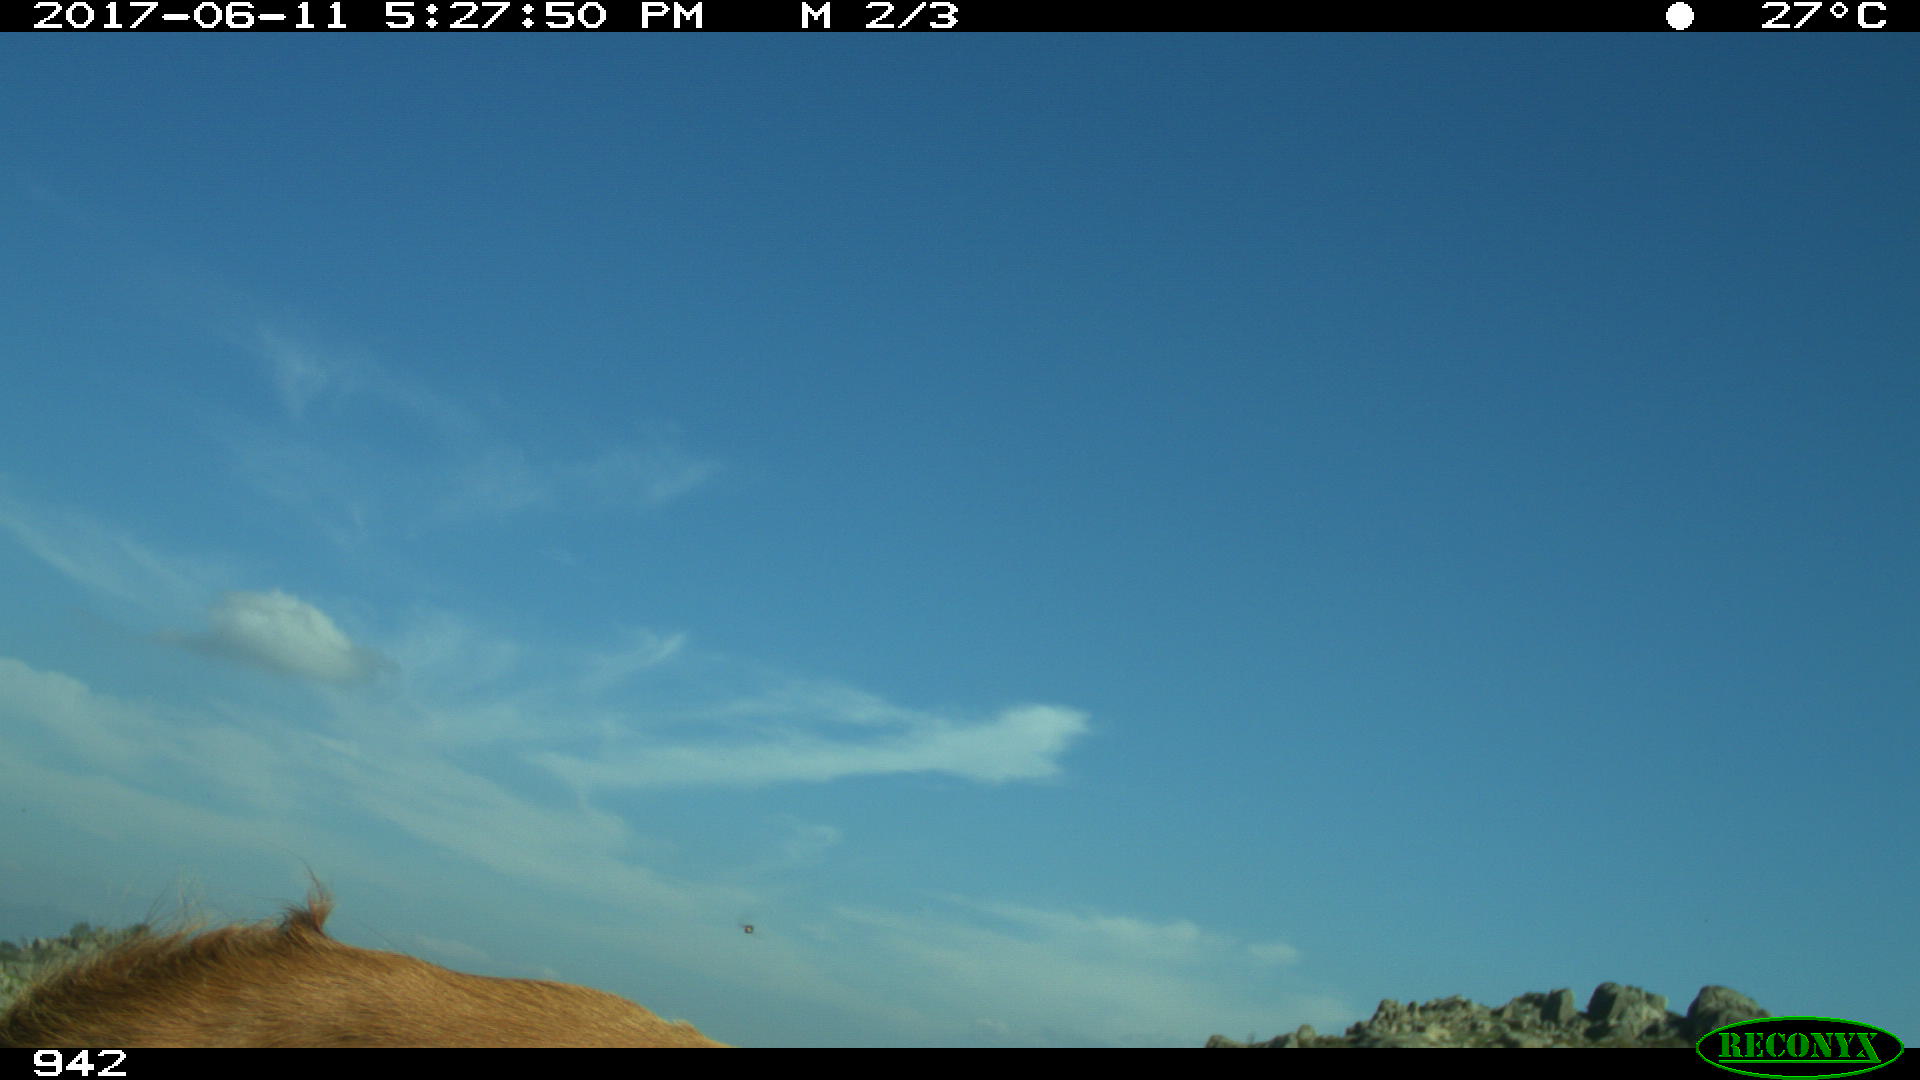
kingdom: Animalia
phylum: Chordata
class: Mammalia
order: Artiodactyla
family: Bovidae
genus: Bos
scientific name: Bos taurus
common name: Domesticated cattle
